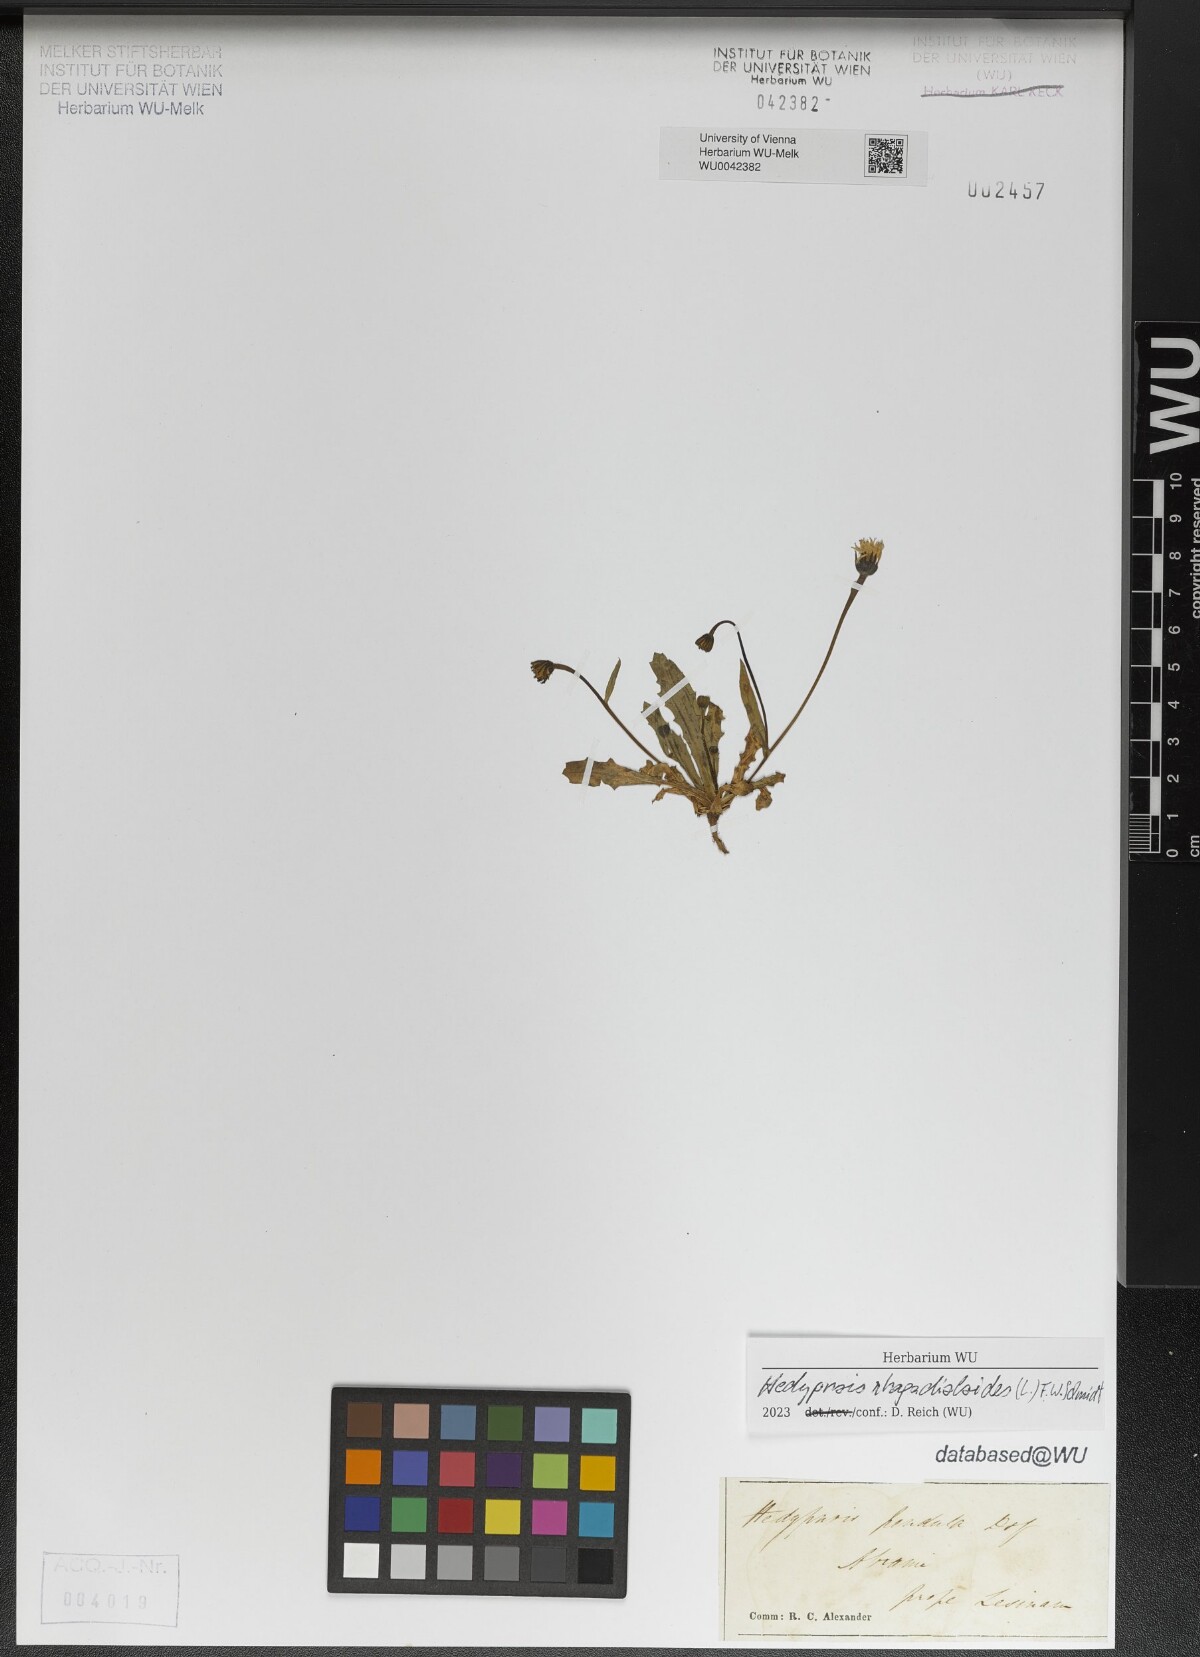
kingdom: Plantae
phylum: Tracheophyta
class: Magnoliopsida
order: Asterales
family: Asteraceae
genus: Hedypnois
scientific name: Hedypnois rhagadioloides
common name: Cretan weed
